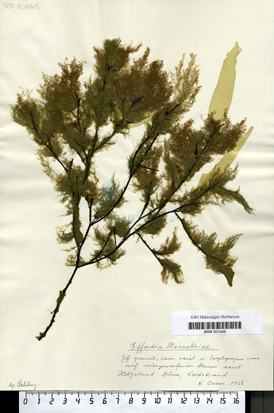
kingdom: Chromista
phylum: Ochrophyta
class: Phaeophyceae
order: Ectocarpales
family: Acinetosporaceae
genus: Hincksia
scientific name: Hincksia hincksiae
